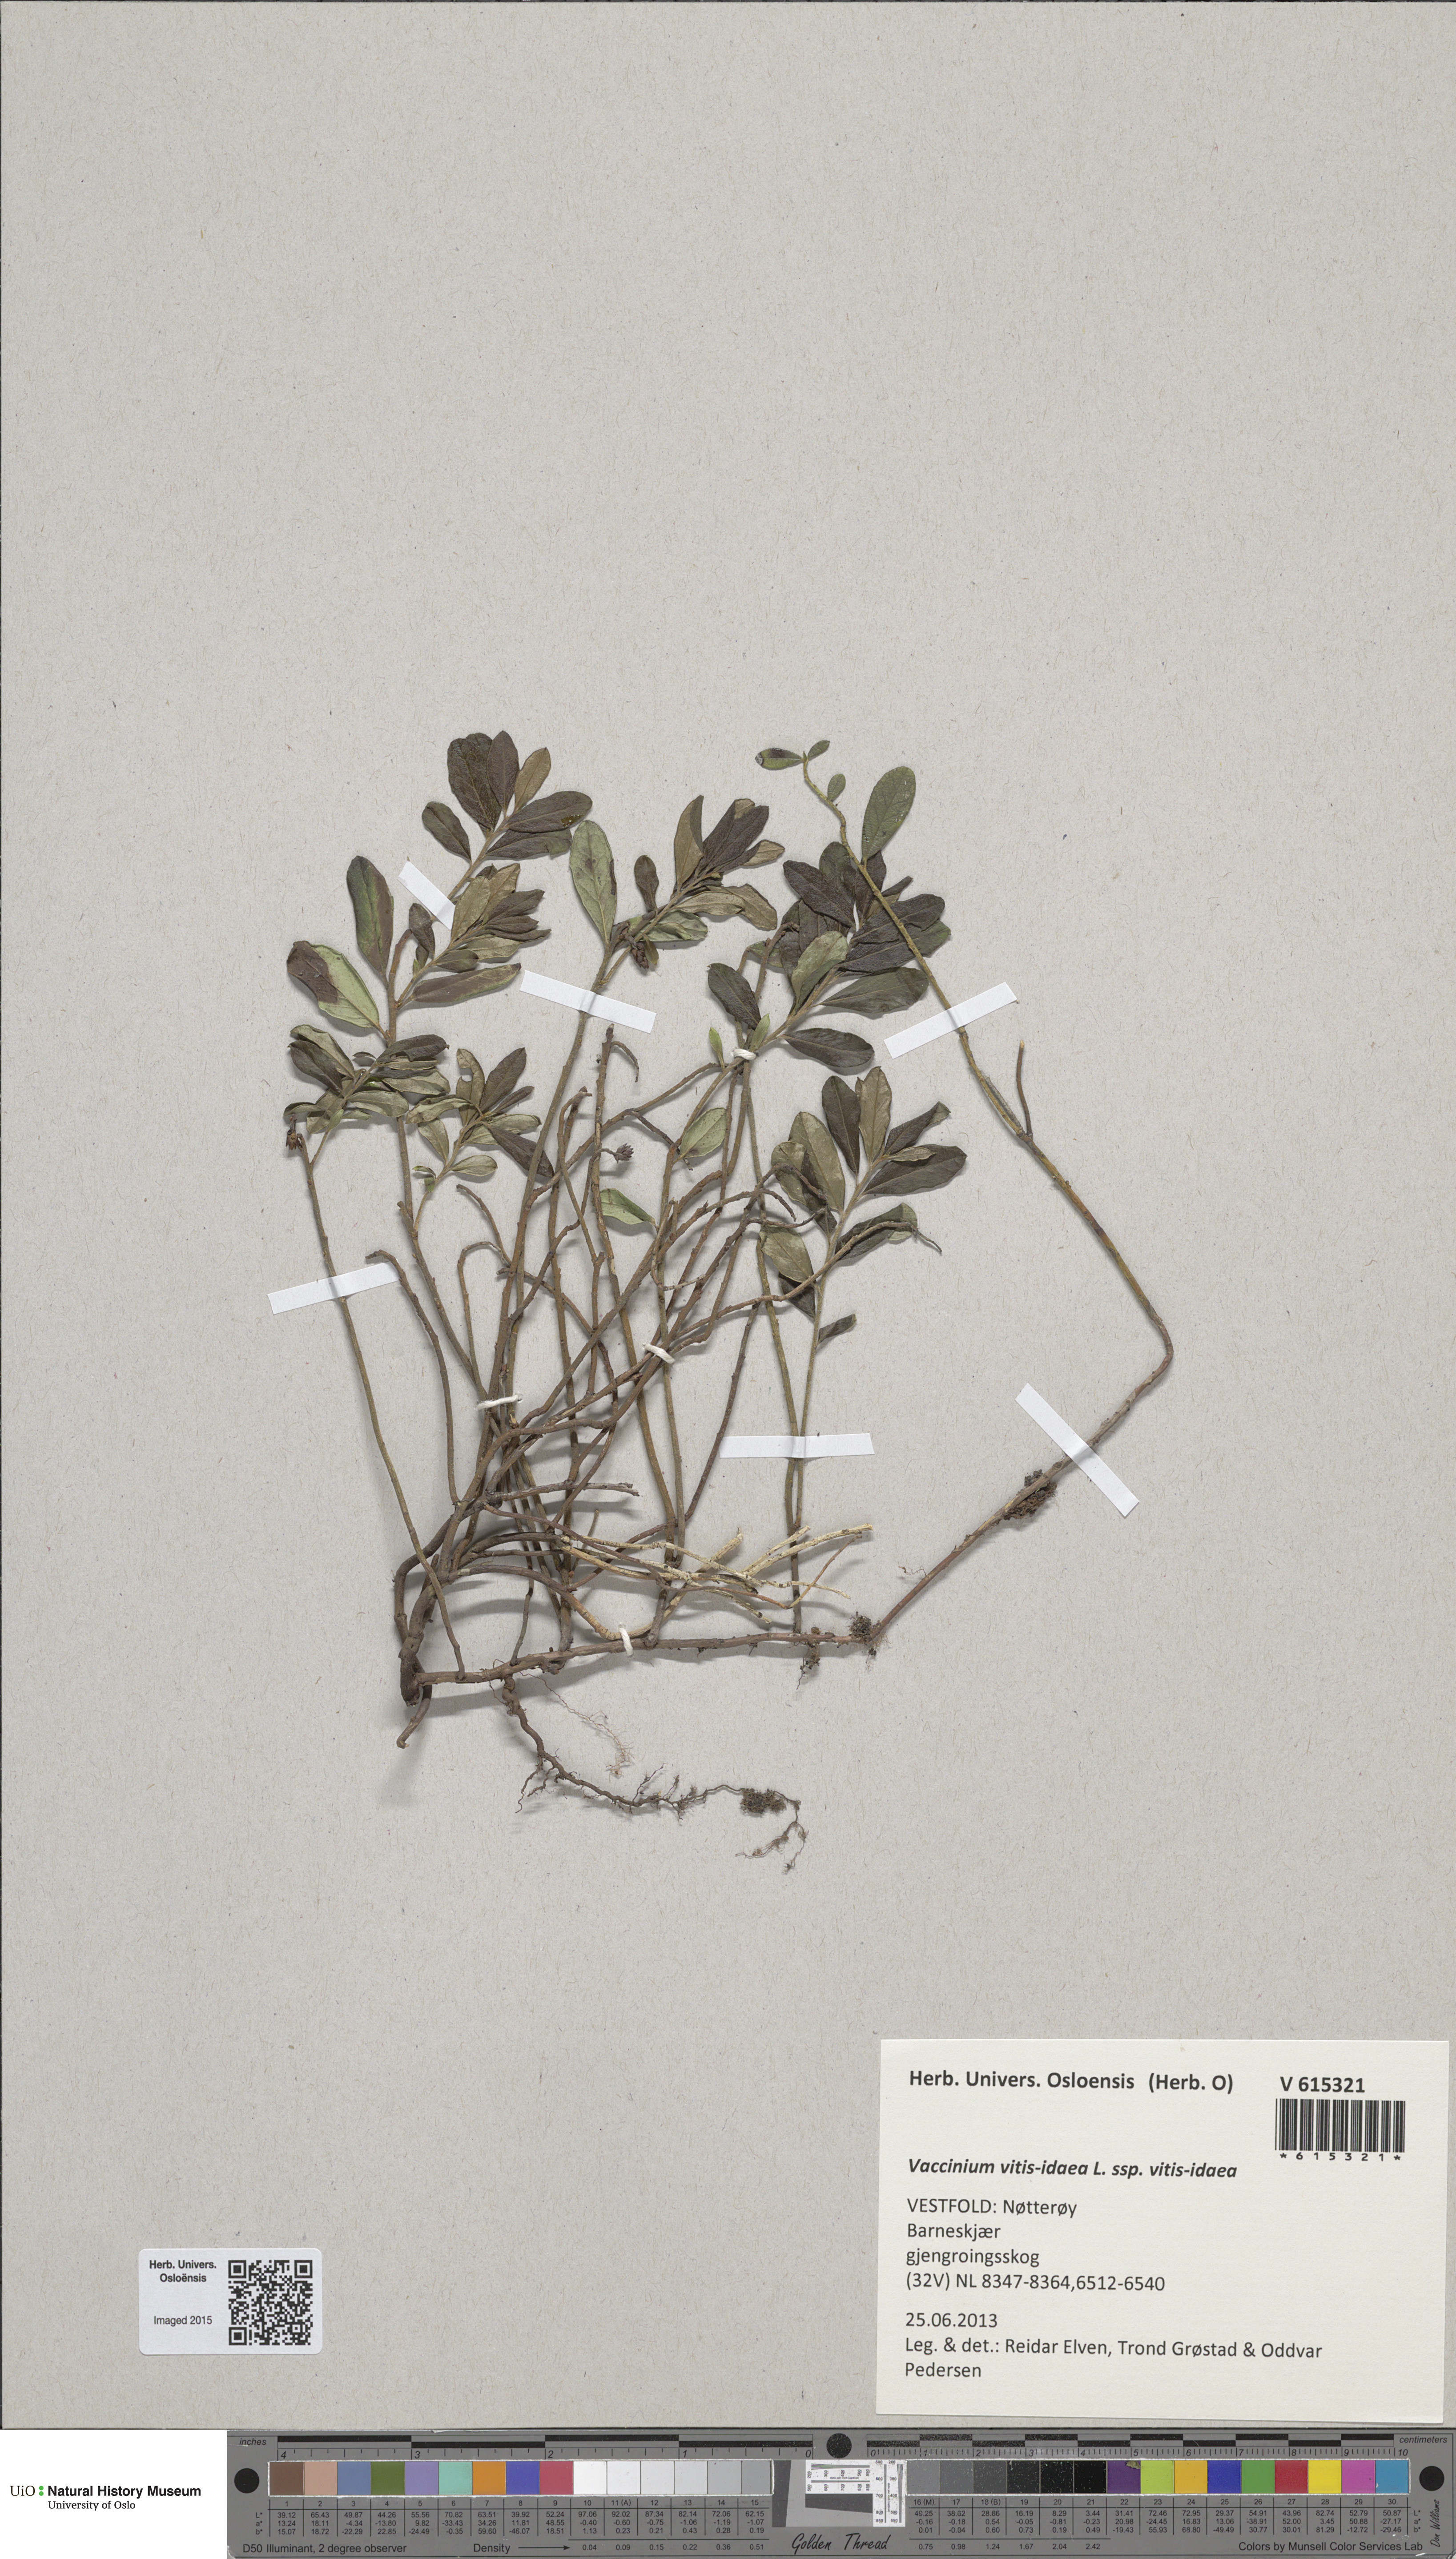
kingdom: Plantae
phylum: Tracheophyta
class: Magnoliopsida
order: Ericales
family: Ericaceae
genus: Vaccinium
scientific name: Vaccinium vitis-idaea
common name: Cowberry
